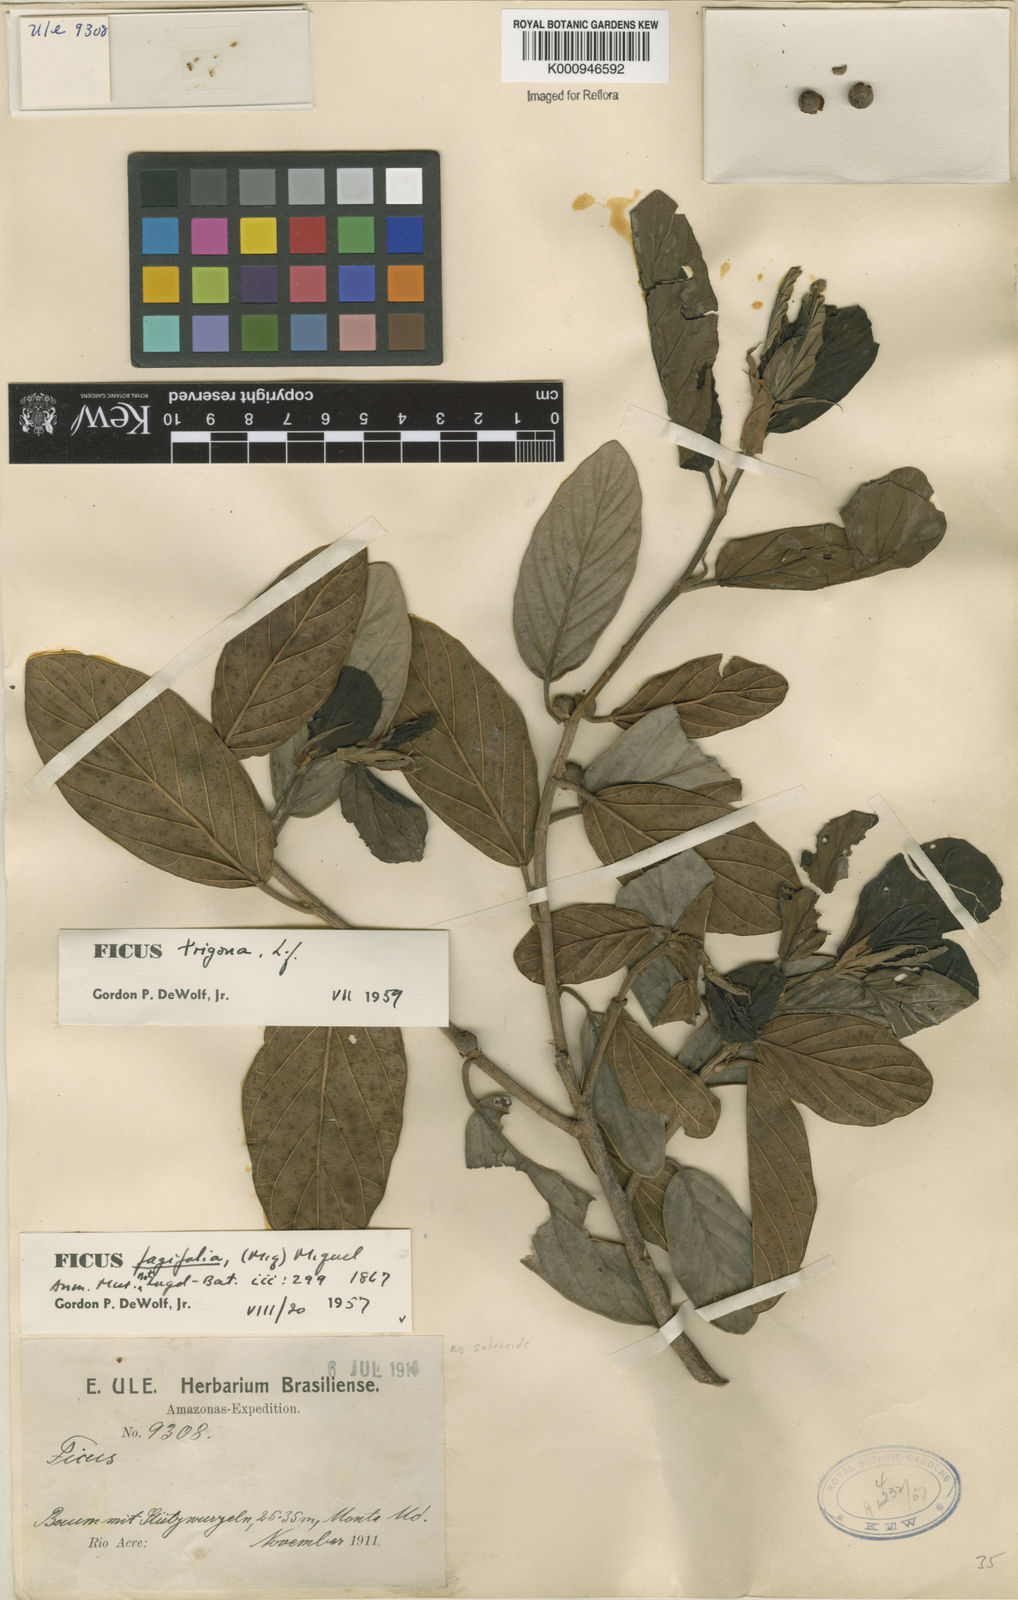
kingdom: Plantae
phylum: Tracheophyta
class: Magnoliopsida
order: Rosales
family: Moraceae
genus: Ficus
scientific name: Ficus trigona
